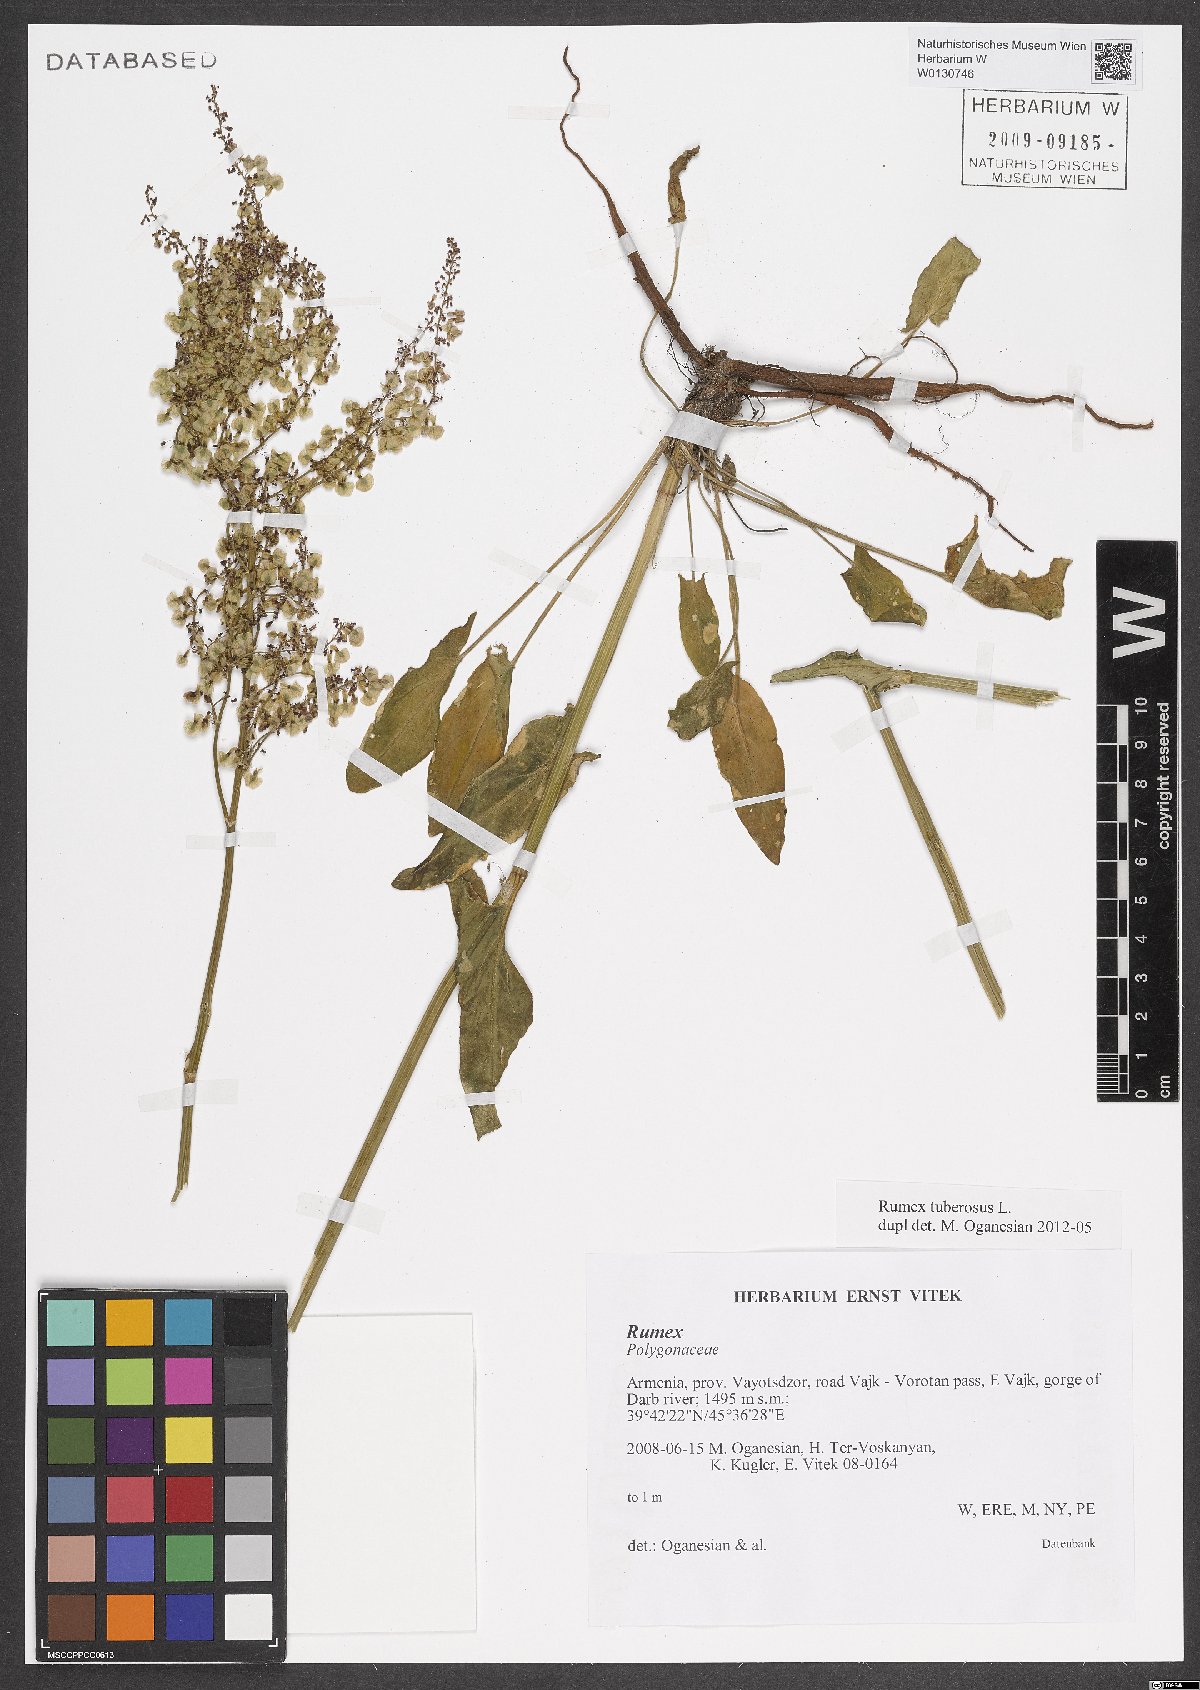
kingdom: Plantae
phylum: Tracheophyta
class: Magnoliopsida
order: Caryophyllales
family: Polygonaceae
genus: Rumex
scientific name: Rumex tuberosus
